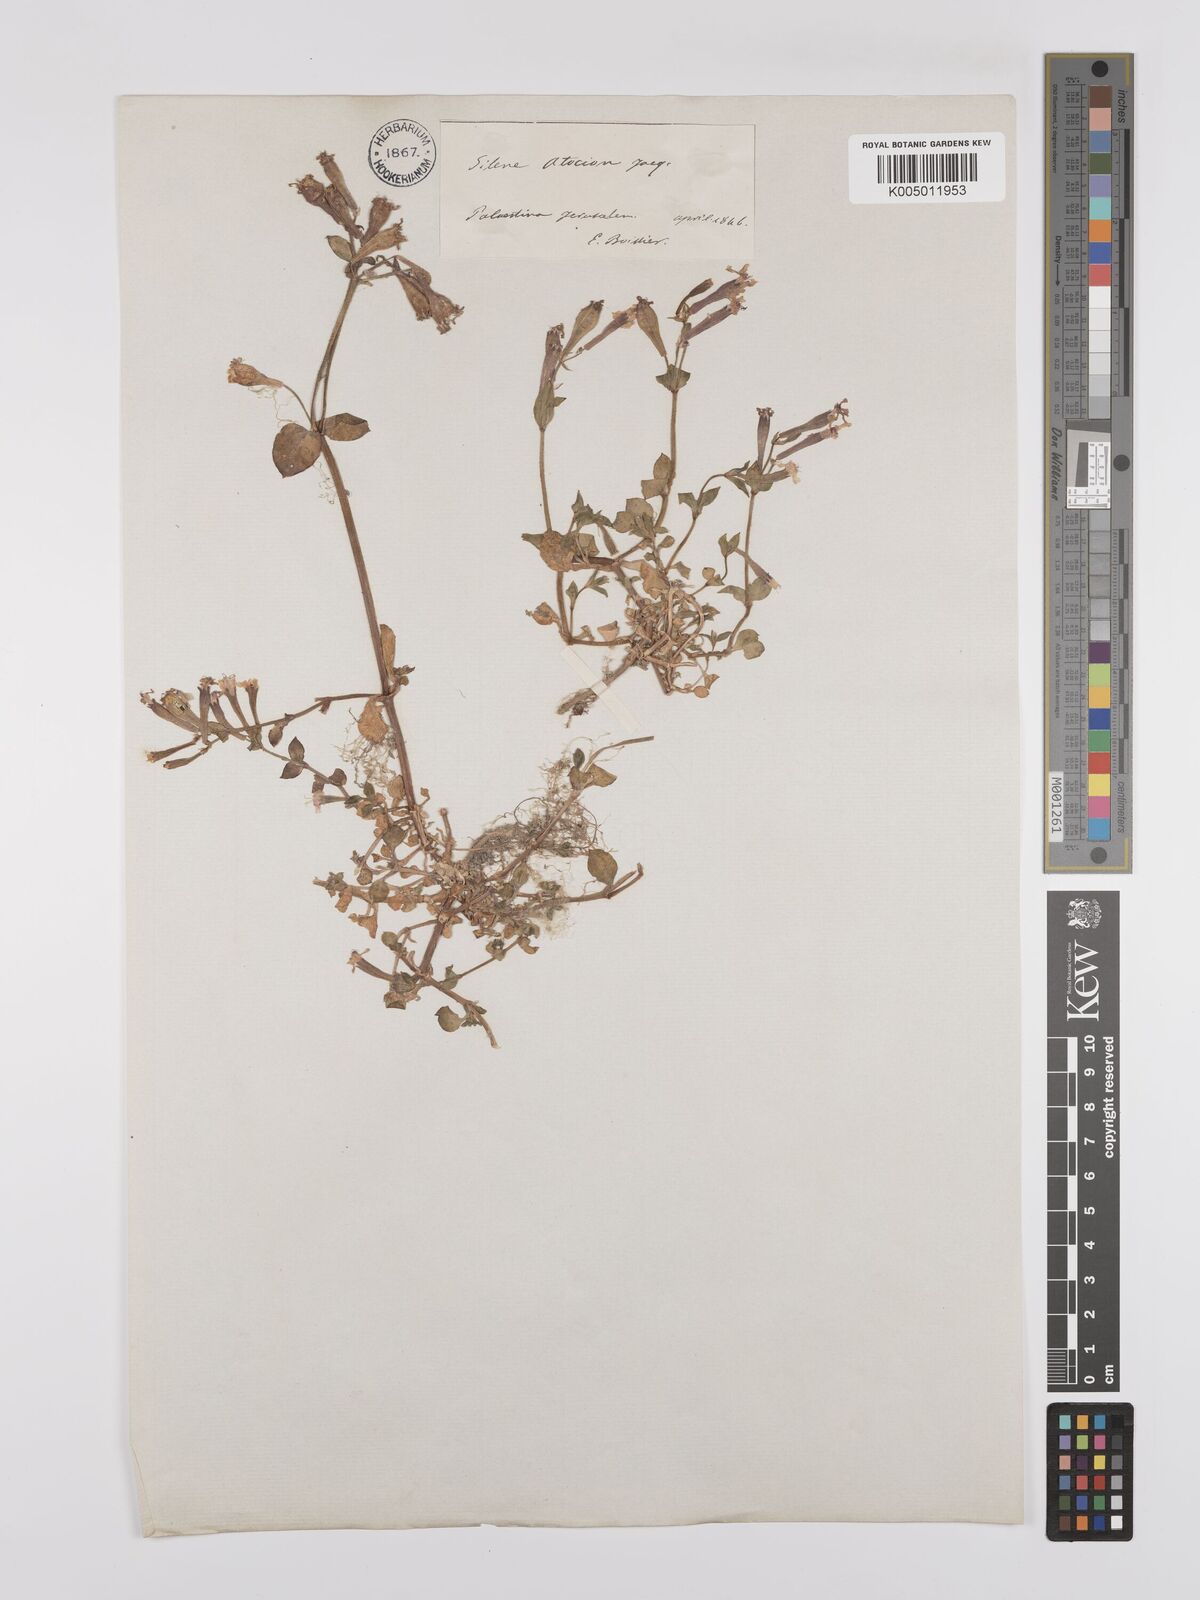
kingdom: Plantae
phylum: Tracheophyta
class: Magnoliopsida
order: Caryophyllales
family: Caryophyllaceae
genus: Silene
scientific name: Silene aegyptiaca
